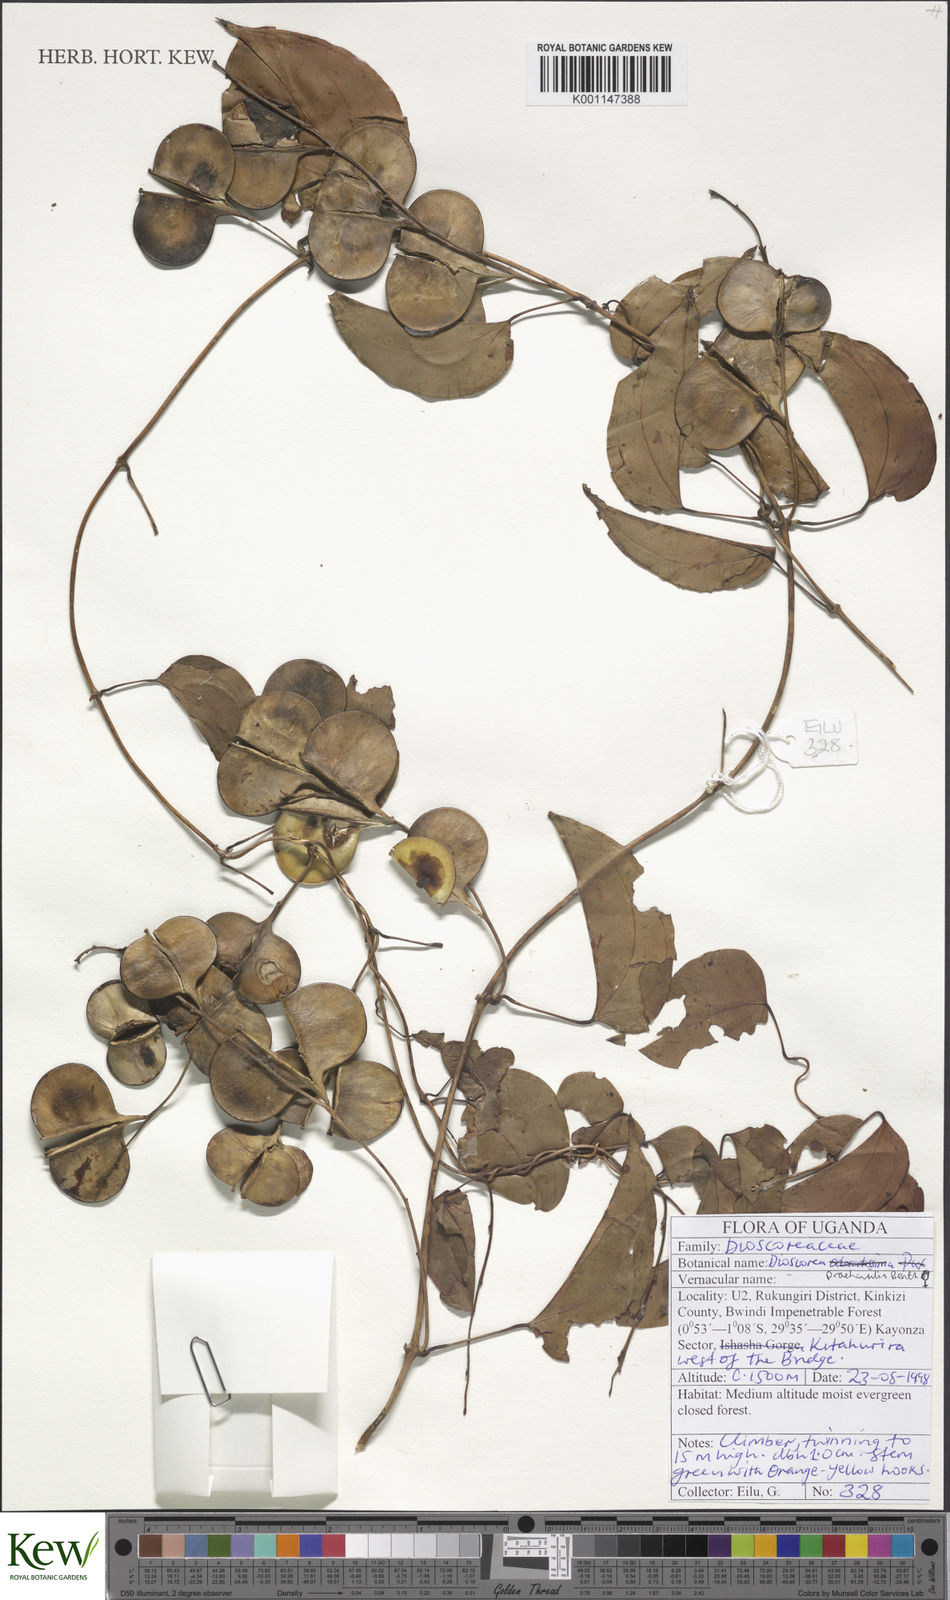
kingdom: Plantae
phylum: Tracheophyta
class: Liliopsida
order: Dioscoreales
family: Dioscoreaceae
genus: Dioscorea
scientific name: Dioscorea praehensilis
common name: Bush yam
